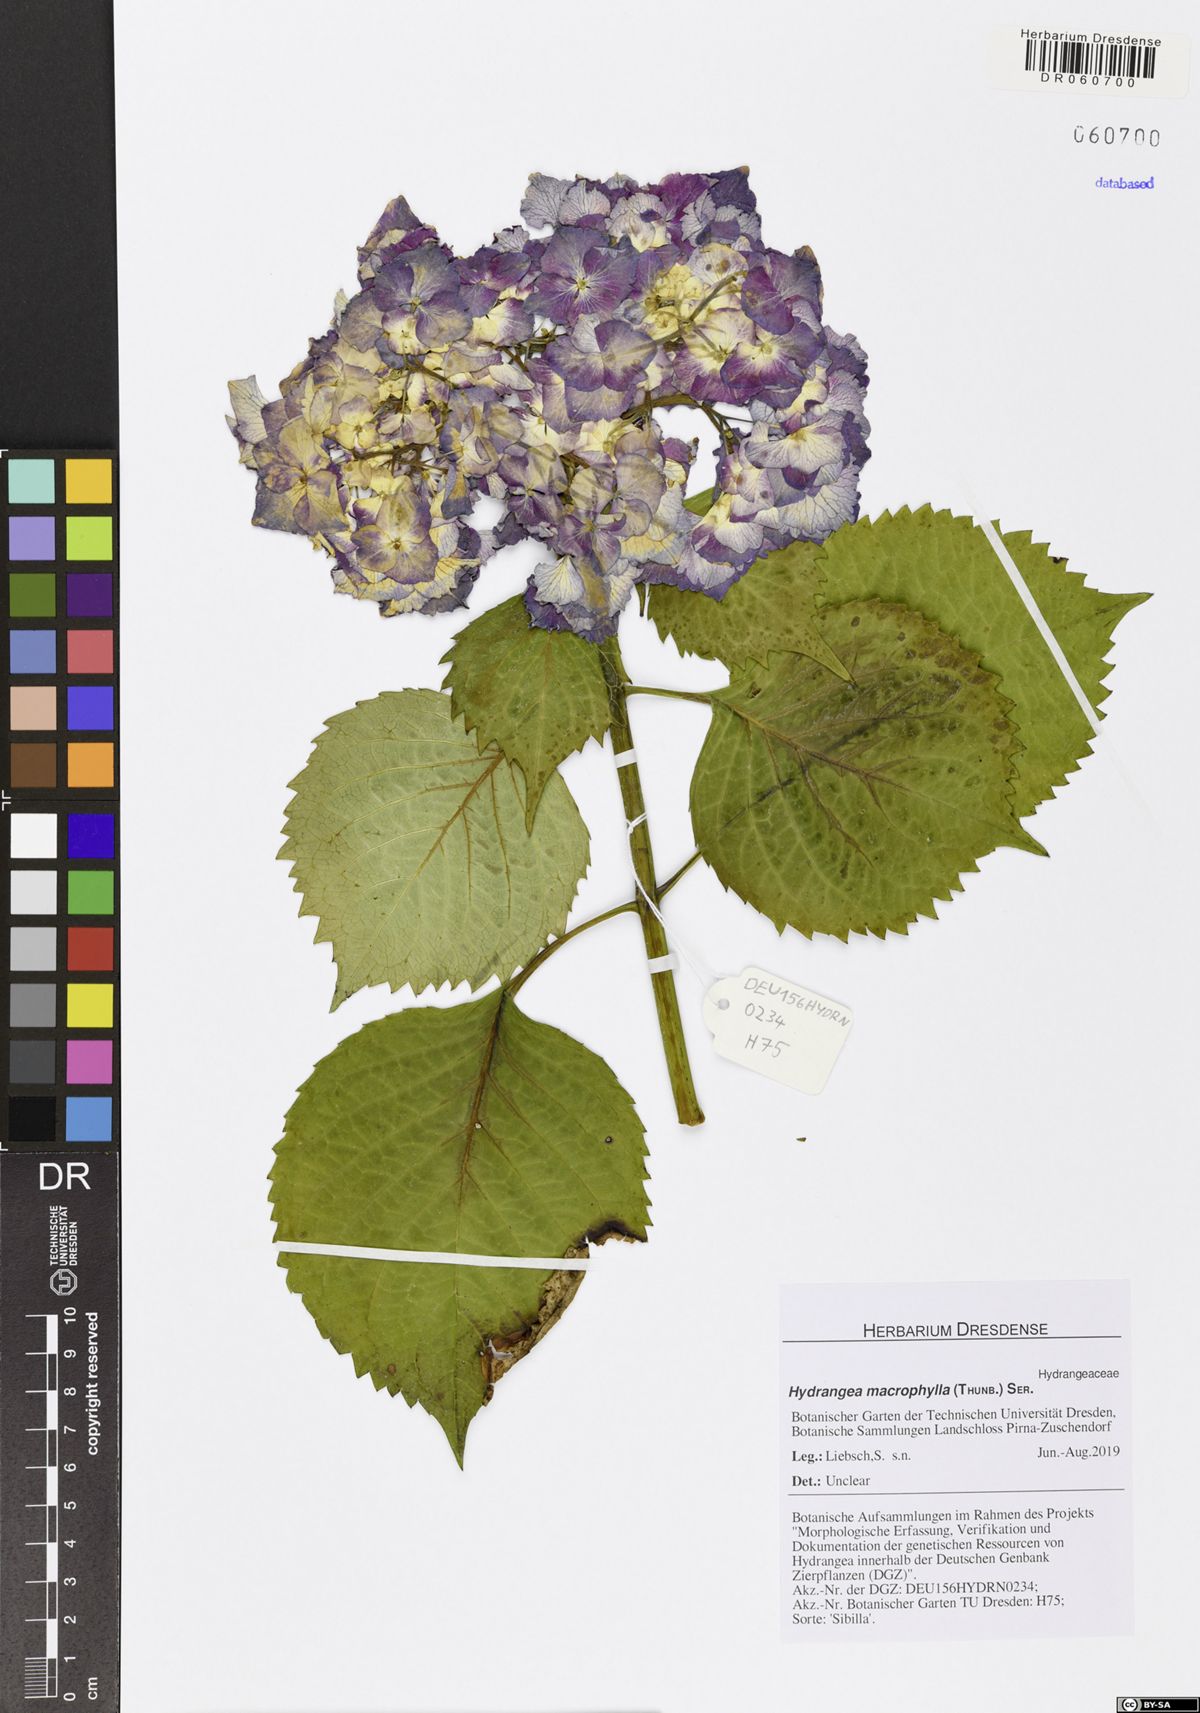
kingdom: Plantae
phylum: Tracheophyta
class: Magnoliopsida
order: Cornales
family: Hydrangeaceae
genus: Hydrangea
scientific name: Hydrangea macrophylla
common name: Hydrangea
